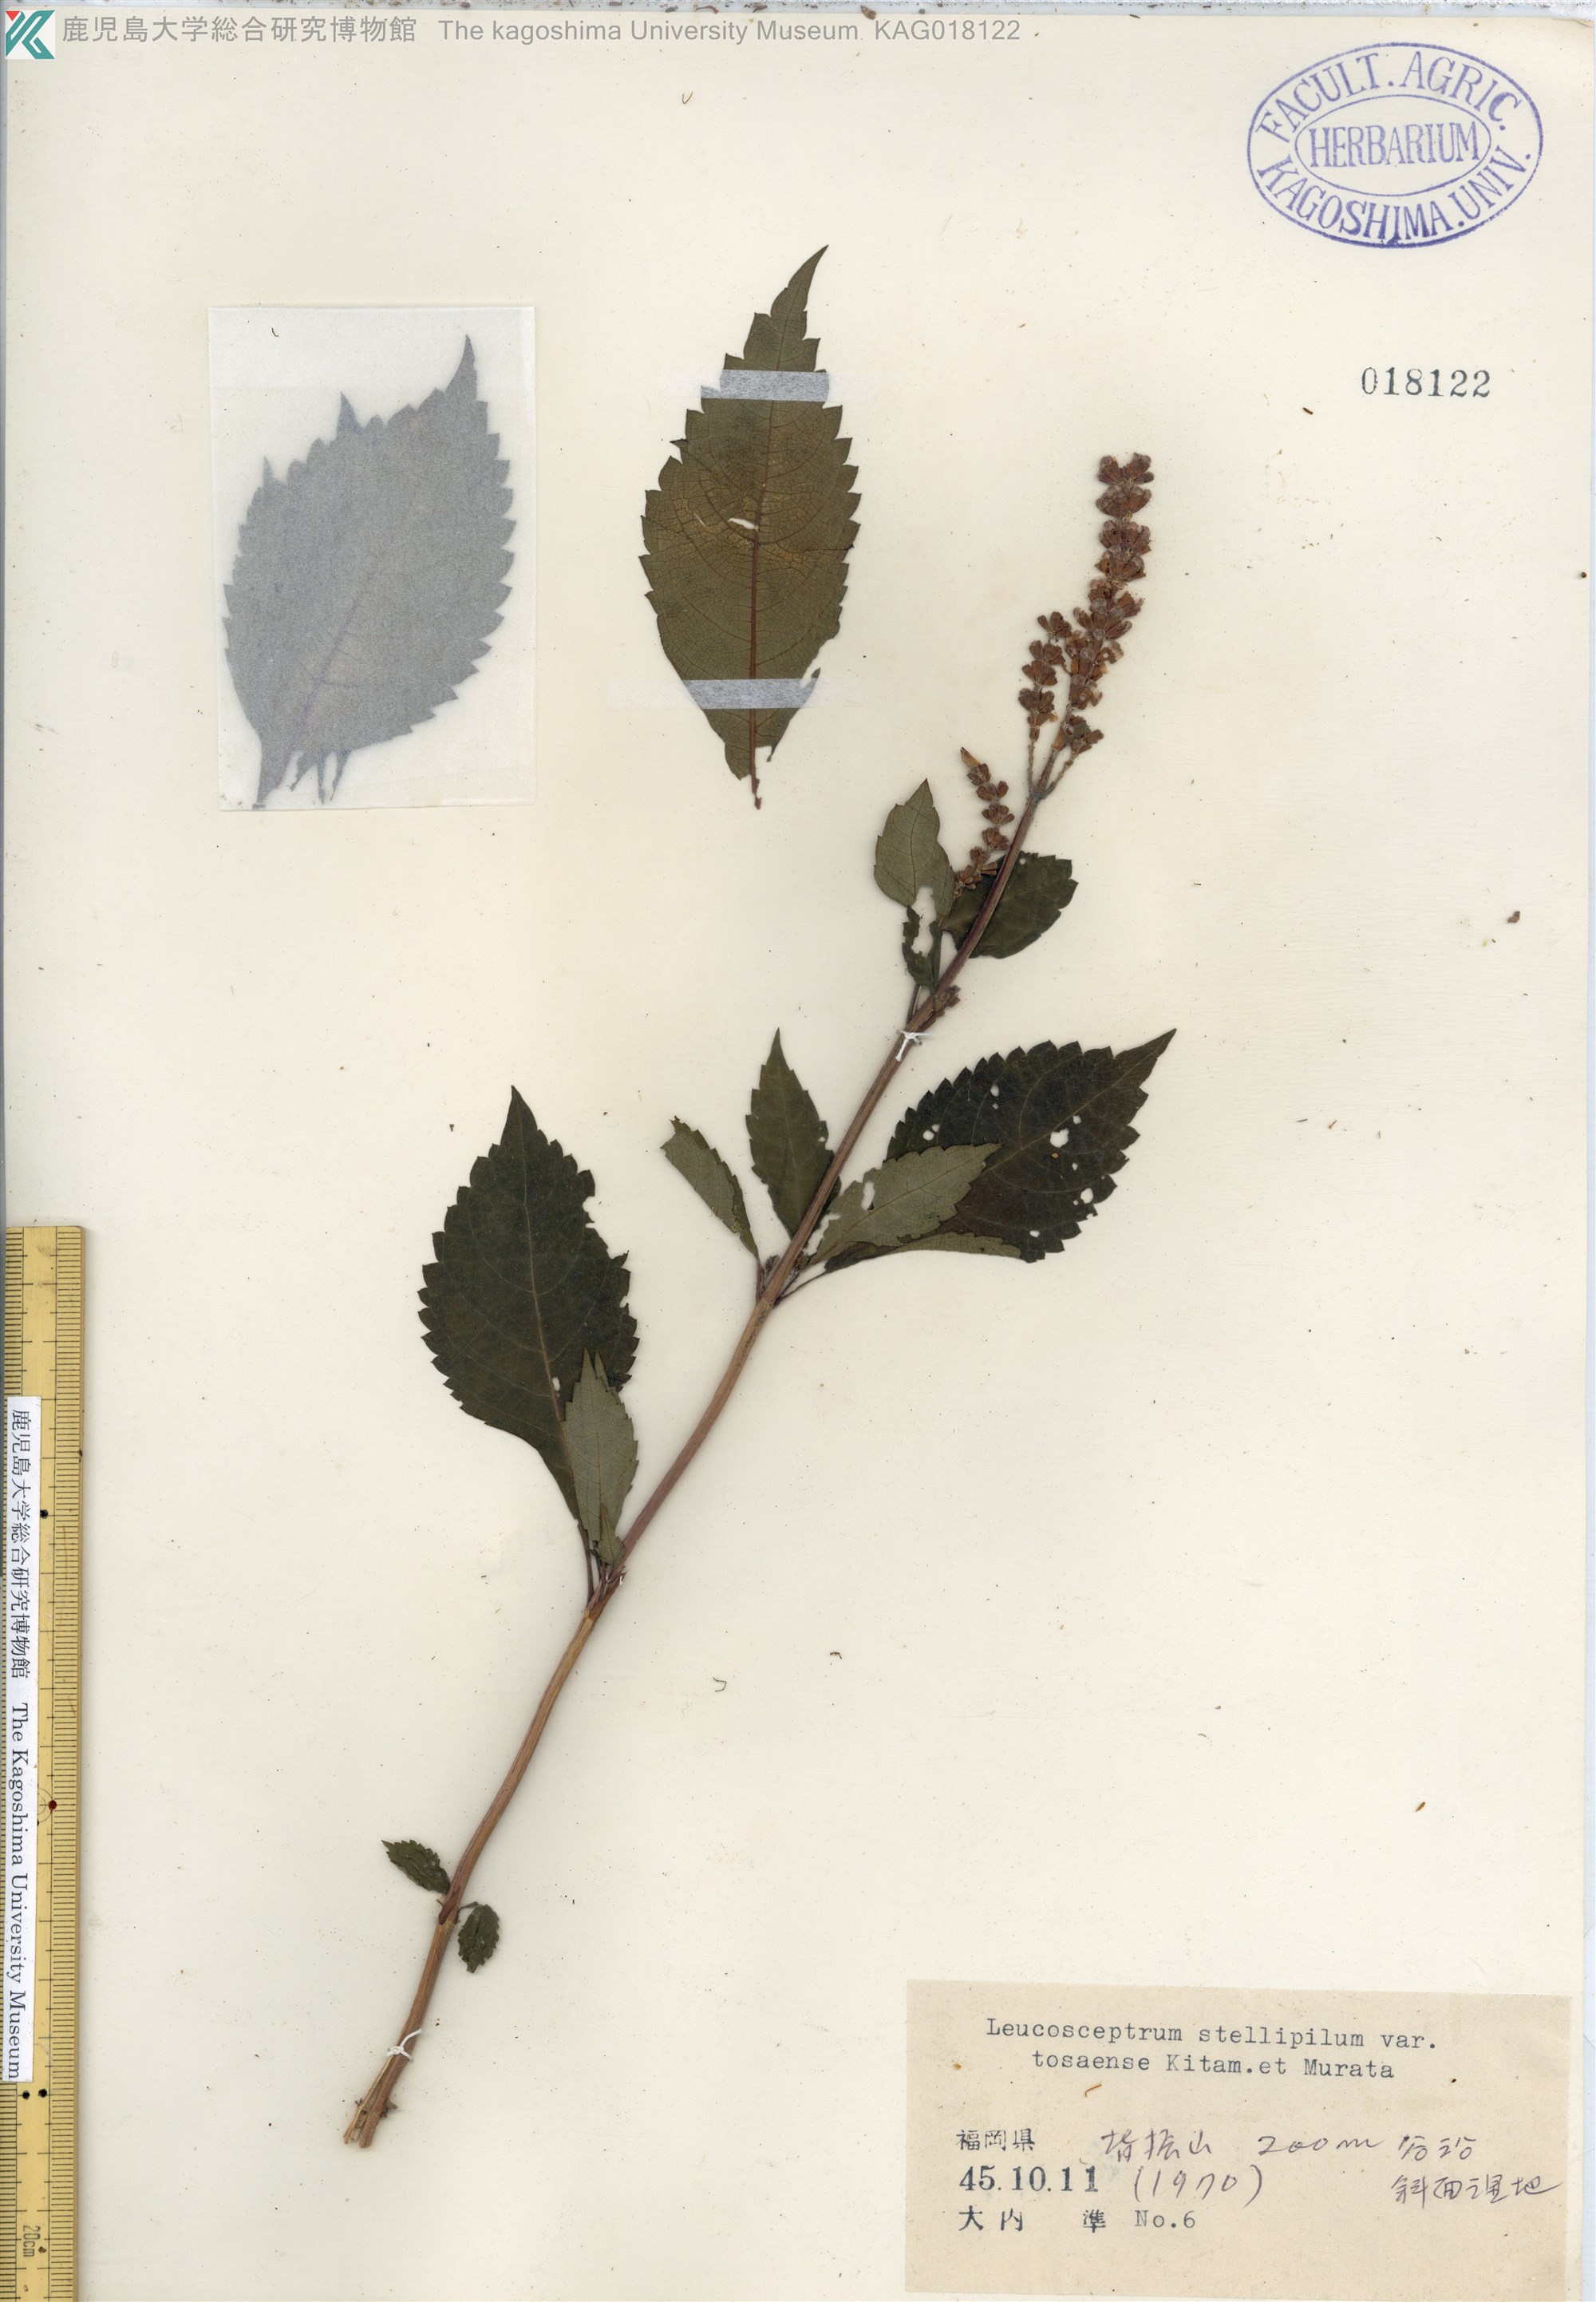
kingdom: Plantae
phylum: Tracheophyta
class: Magnoliopsida
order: Lamiales
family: Lamiaceae
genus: Comanthosphace
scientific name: Comanthosphace japonica
